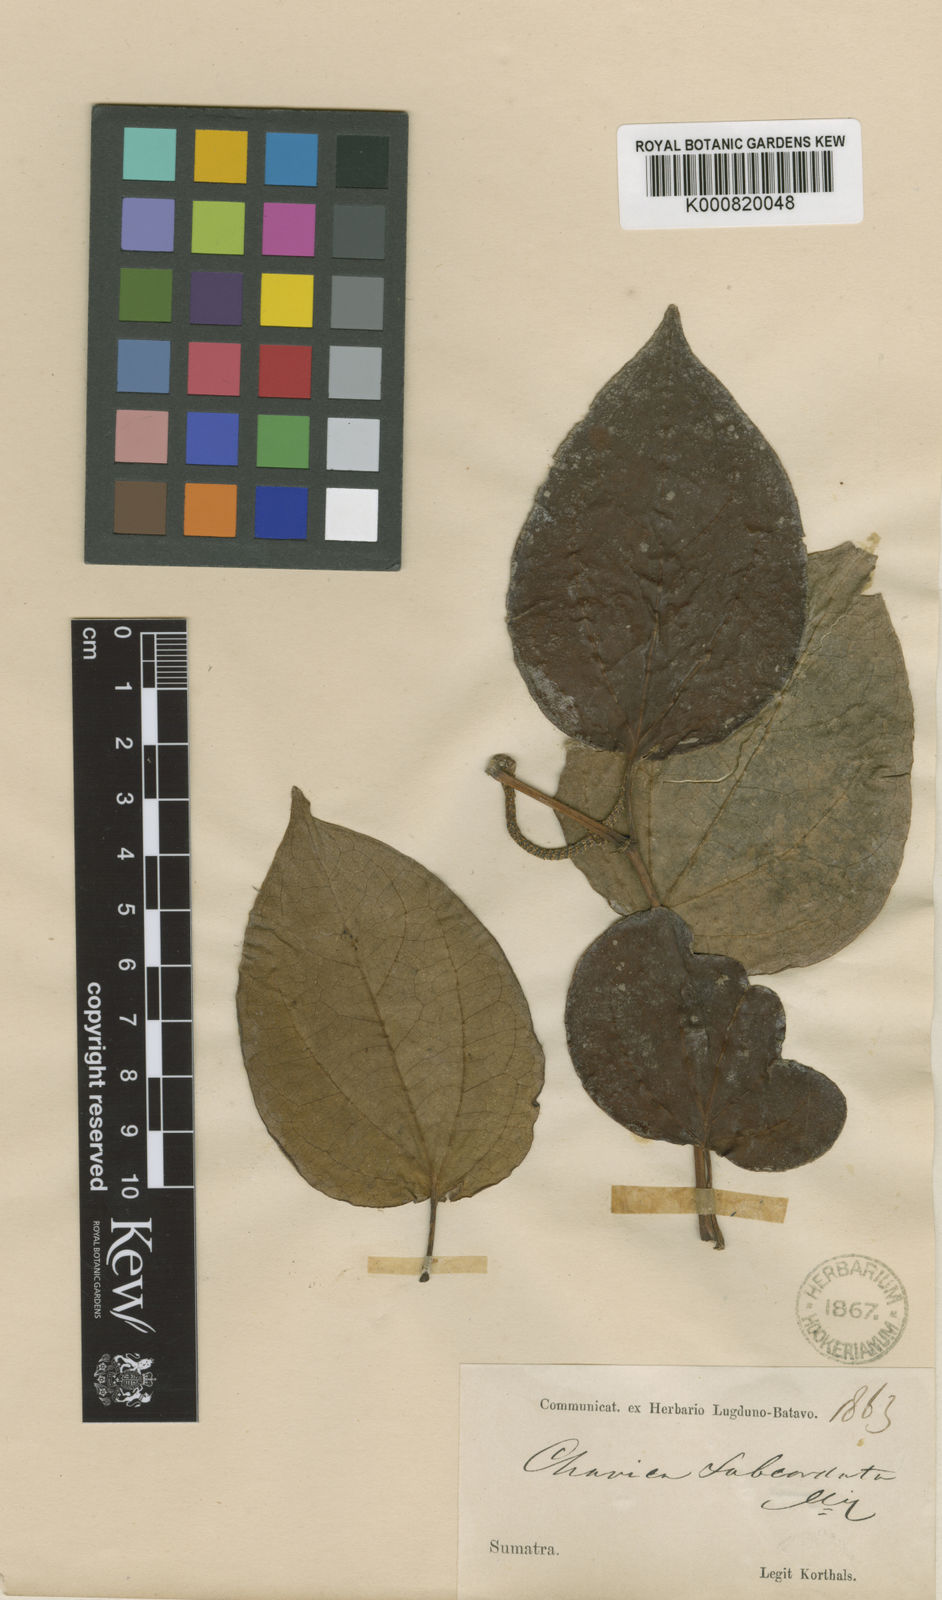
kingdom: Plantae
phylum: Tracheophyta
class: Magnoliopsida
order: Piperales
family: Piperaceae
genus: Piper
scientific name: Piper subcordatum
